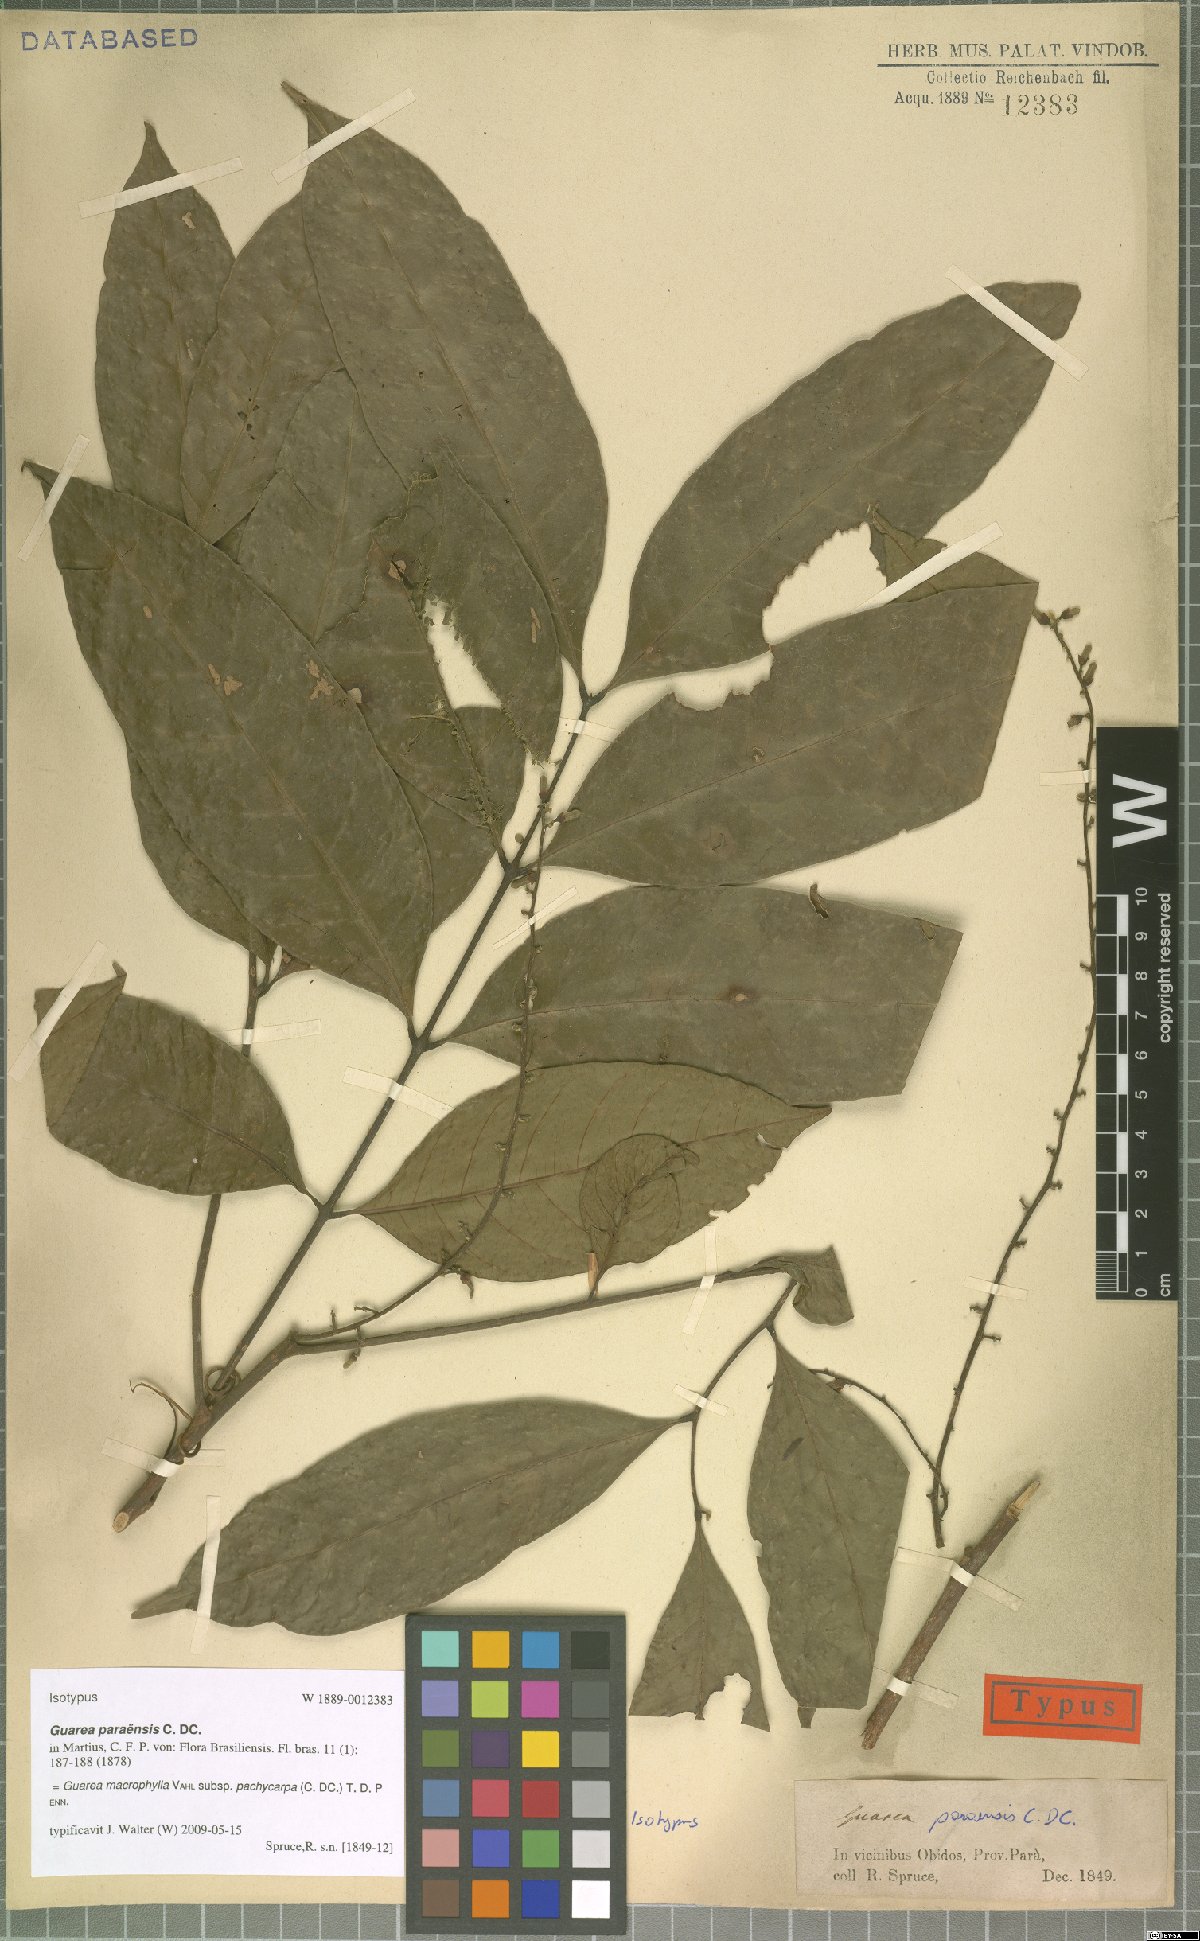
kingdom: Plantae
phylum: Tracheophyta
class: Magnoliopsida
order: Sapindales
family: Meliaceae
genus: Guarea
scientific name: Guarea macrophylla
